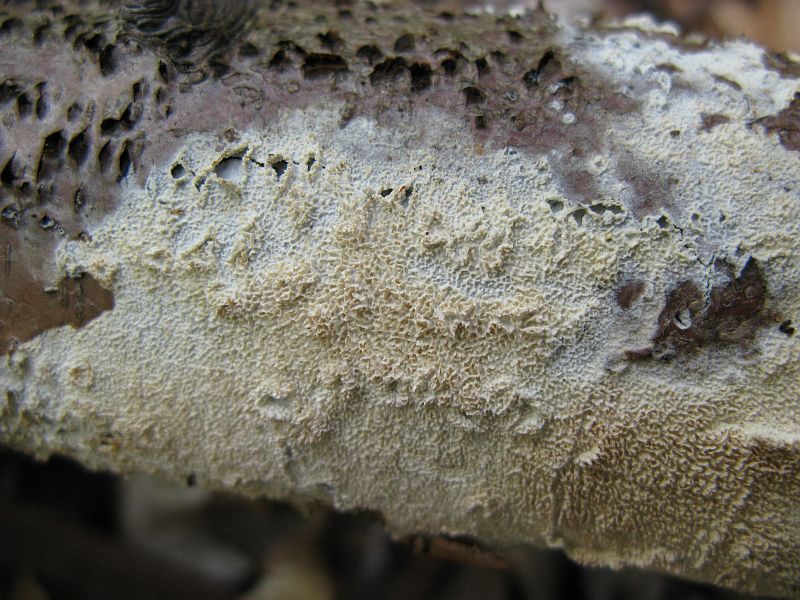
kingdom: Fungi
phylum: Basidiomycota
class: Agaricomycetes
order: Hymenochaetales
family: Schizoporaceae
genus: Schizopora
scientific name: Schizopora paradoxa
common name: hvid tandsvamp
